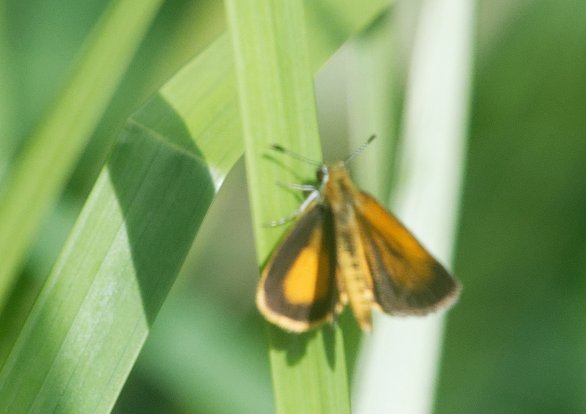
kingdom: Animalia
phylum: Arthropoda
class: Insecta
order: Lepidoptera
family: Hesperiidae
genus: Ancyloxypha
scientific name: Ancyloxypha numitor
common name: Least Skipper
